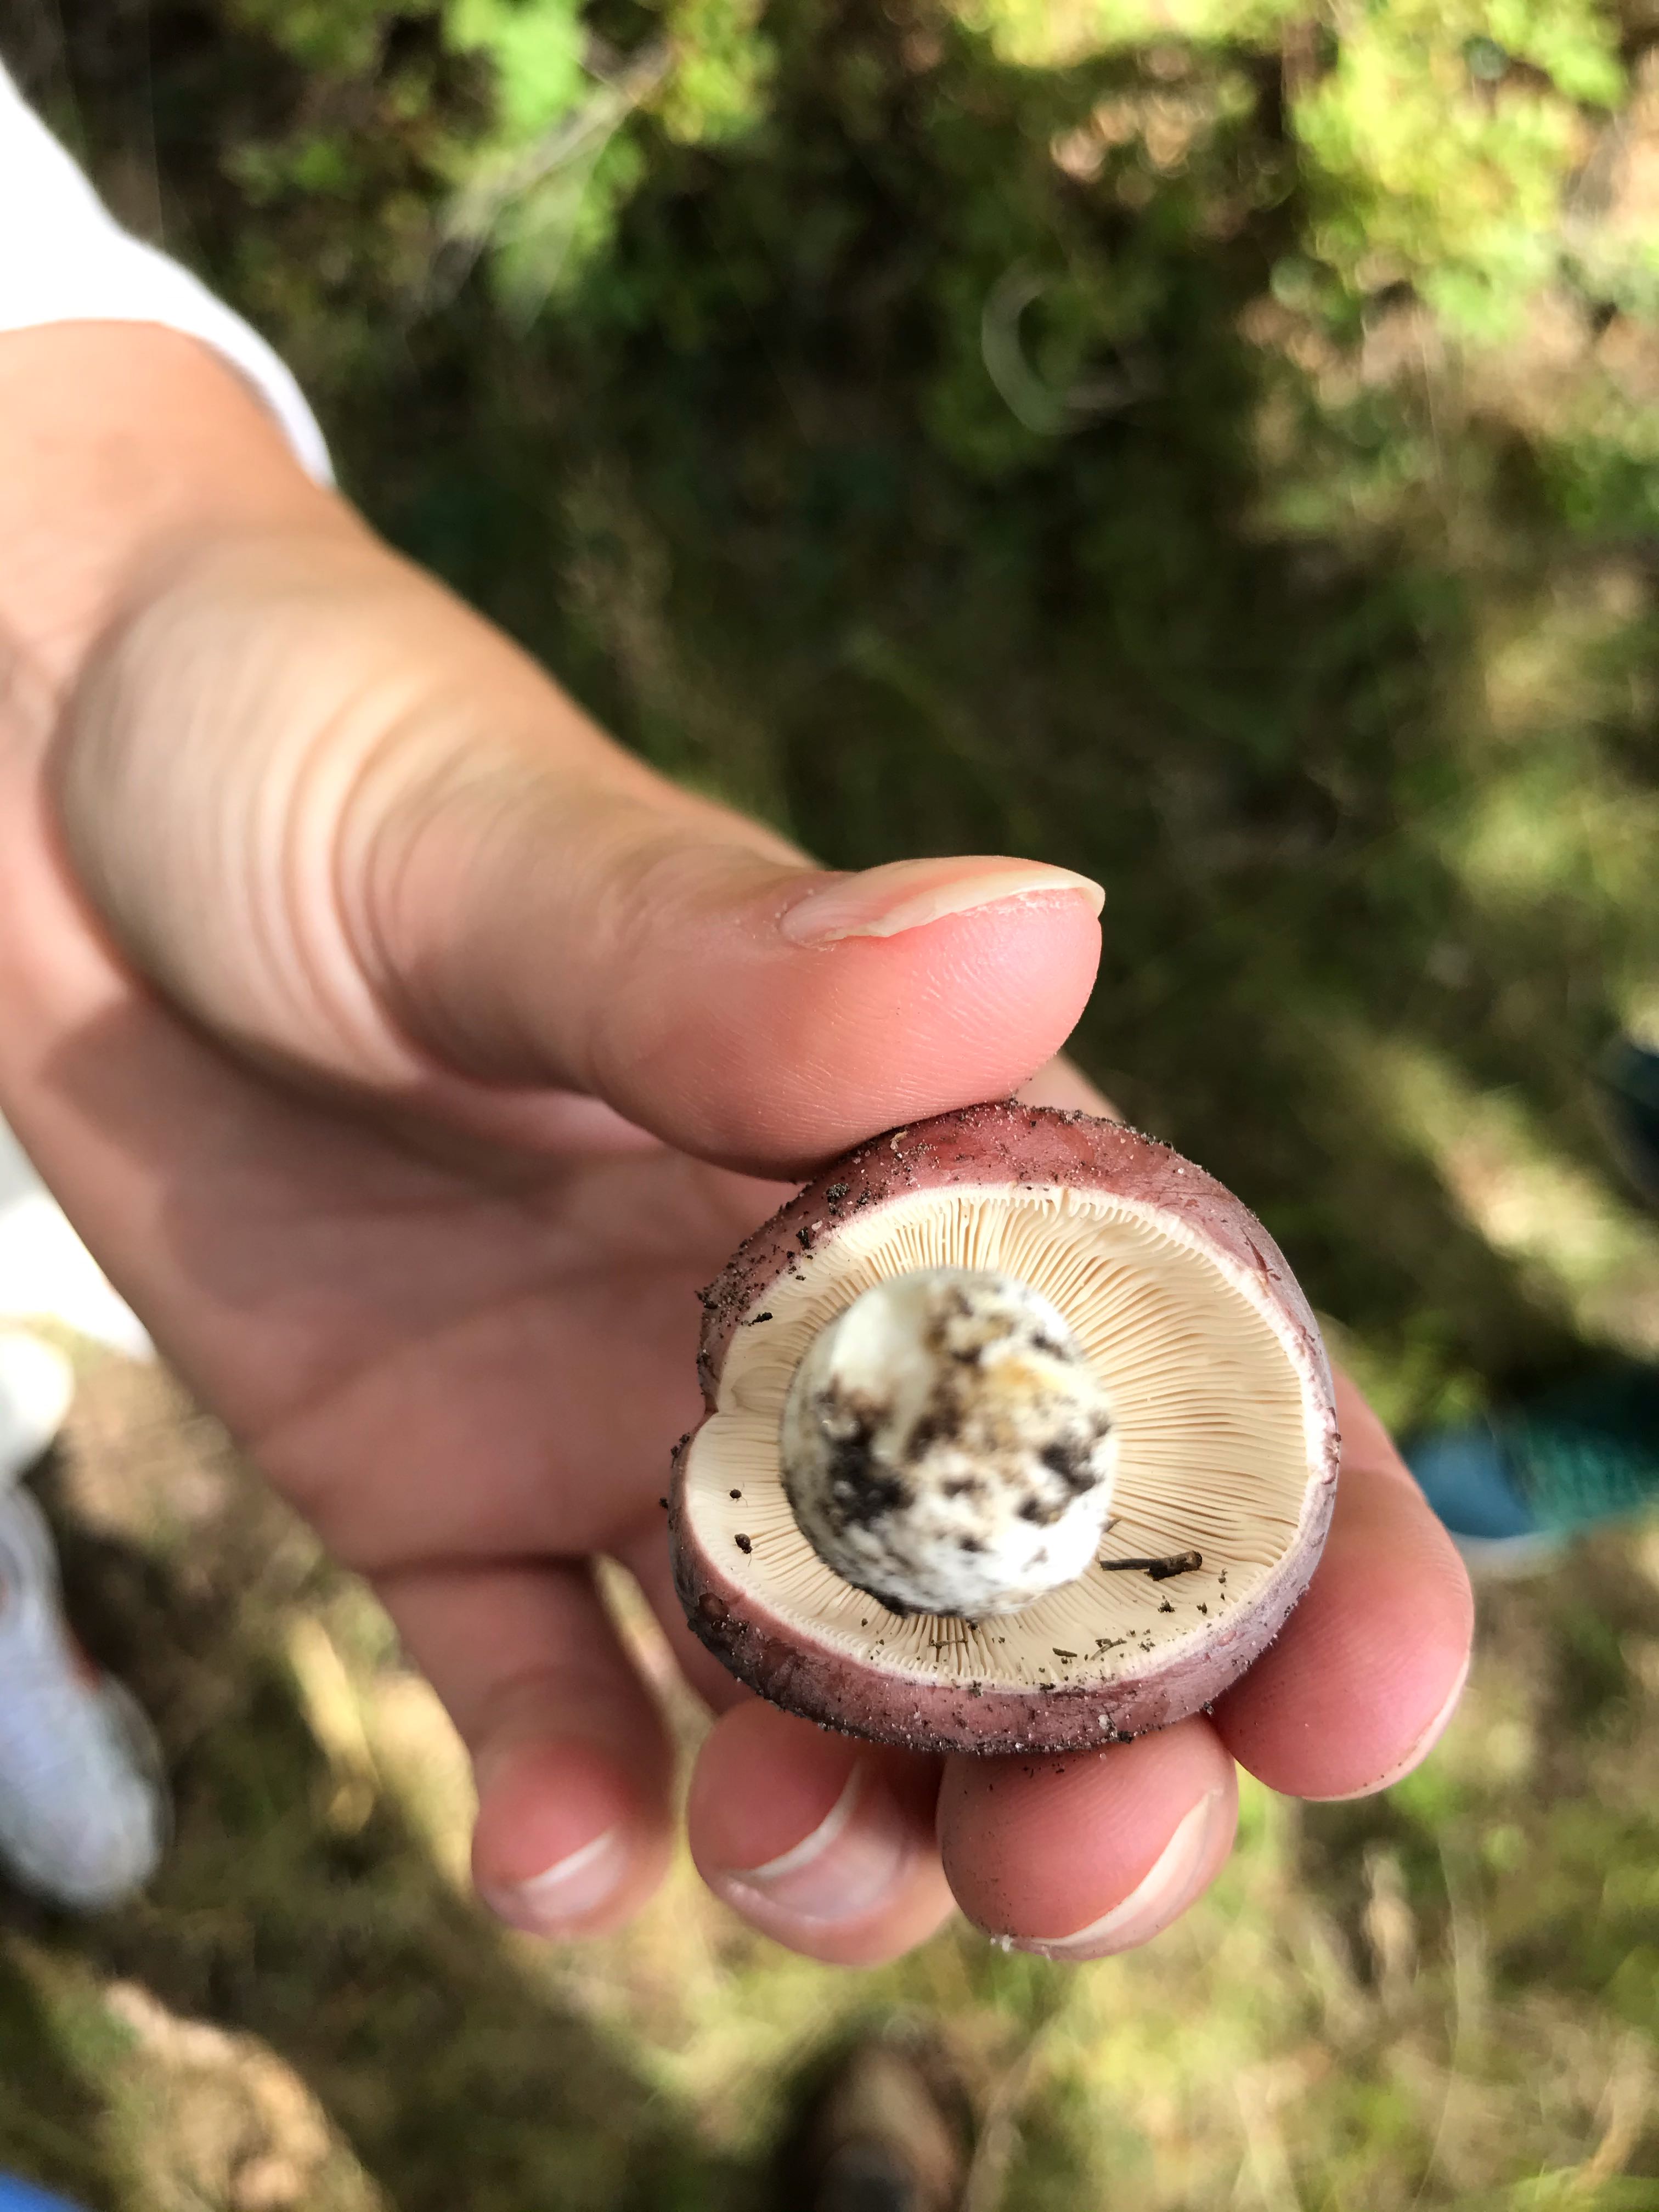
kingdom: Fungi
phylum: Basidiomycota
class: Agaricomycetes
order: Russulales
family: Russulaceae
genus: Russula
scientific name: Russula
